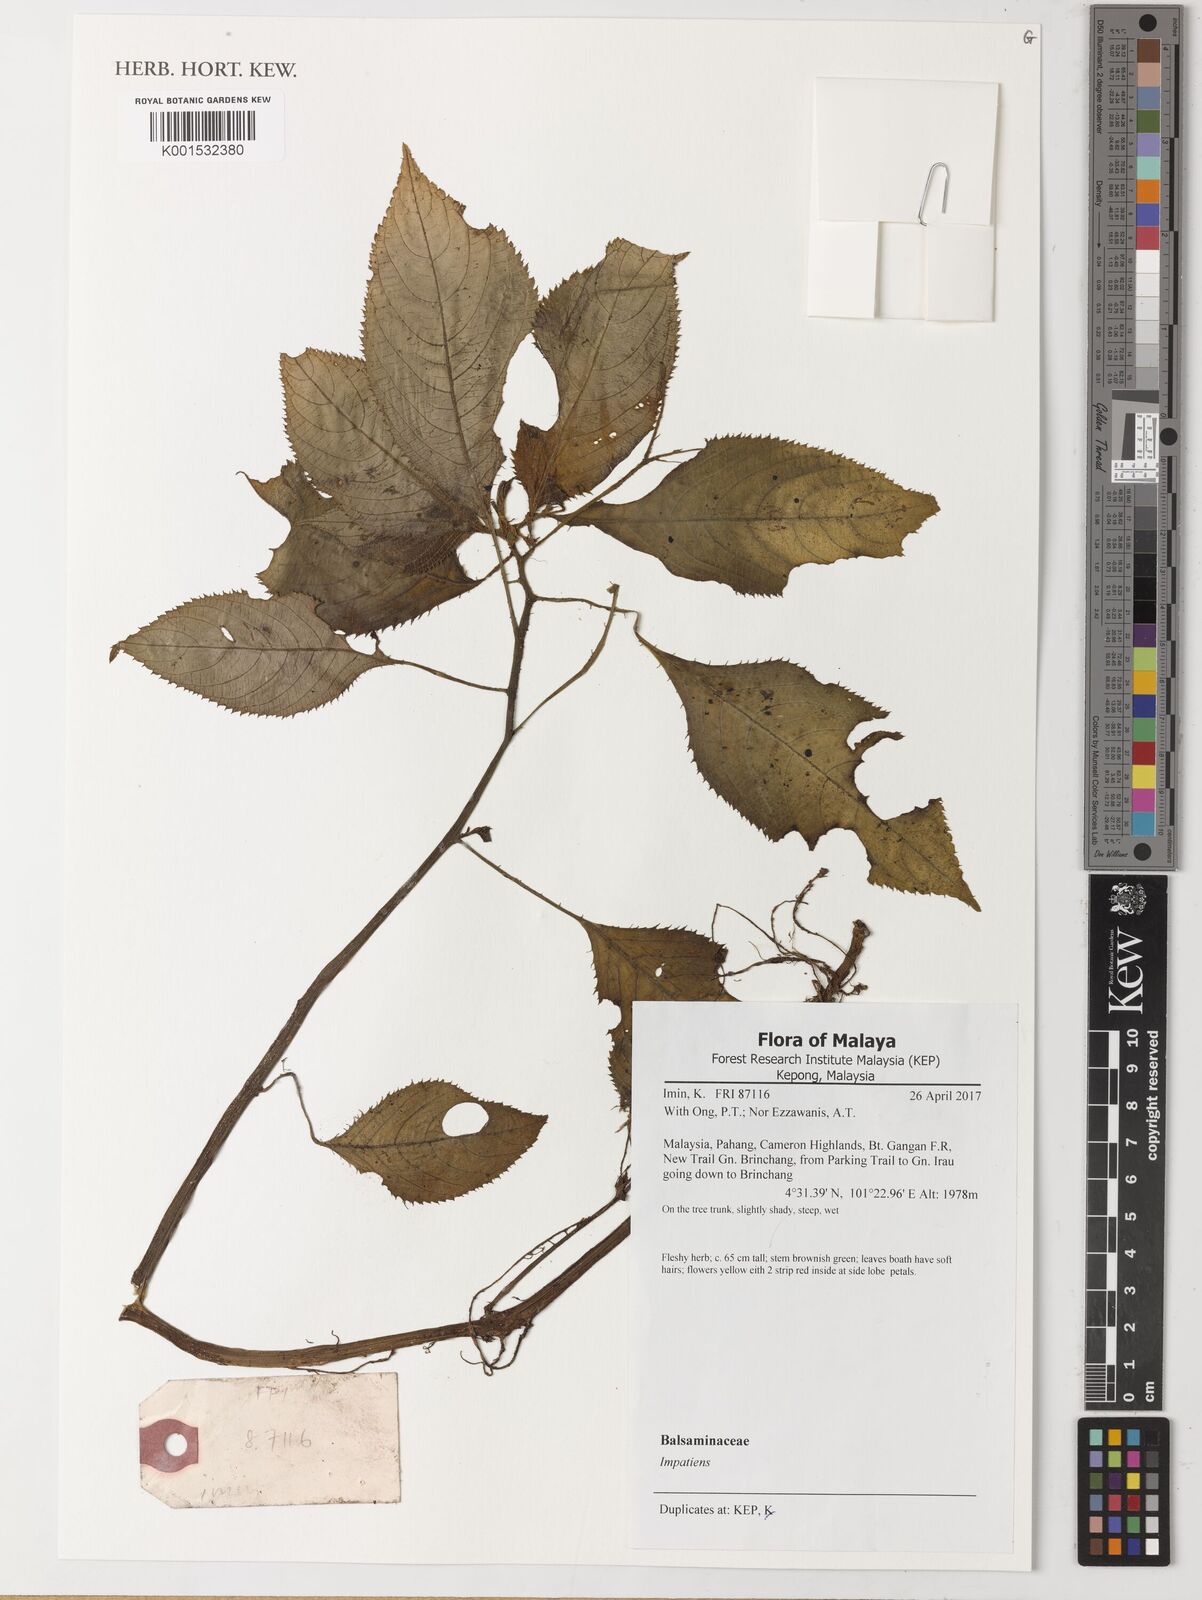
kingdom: Plantae
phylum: Tracheophyta
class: Magnoliopsida
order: Ericales
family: Balsaminaceae
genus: Impatiens
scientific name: Impatiens
